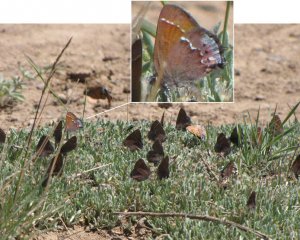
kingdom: Animalia
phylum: Arthropoda
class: Insecta
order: Lepidoptera
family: Lycaenidae
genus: Mitoura
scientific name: Mitoura nelsoni
